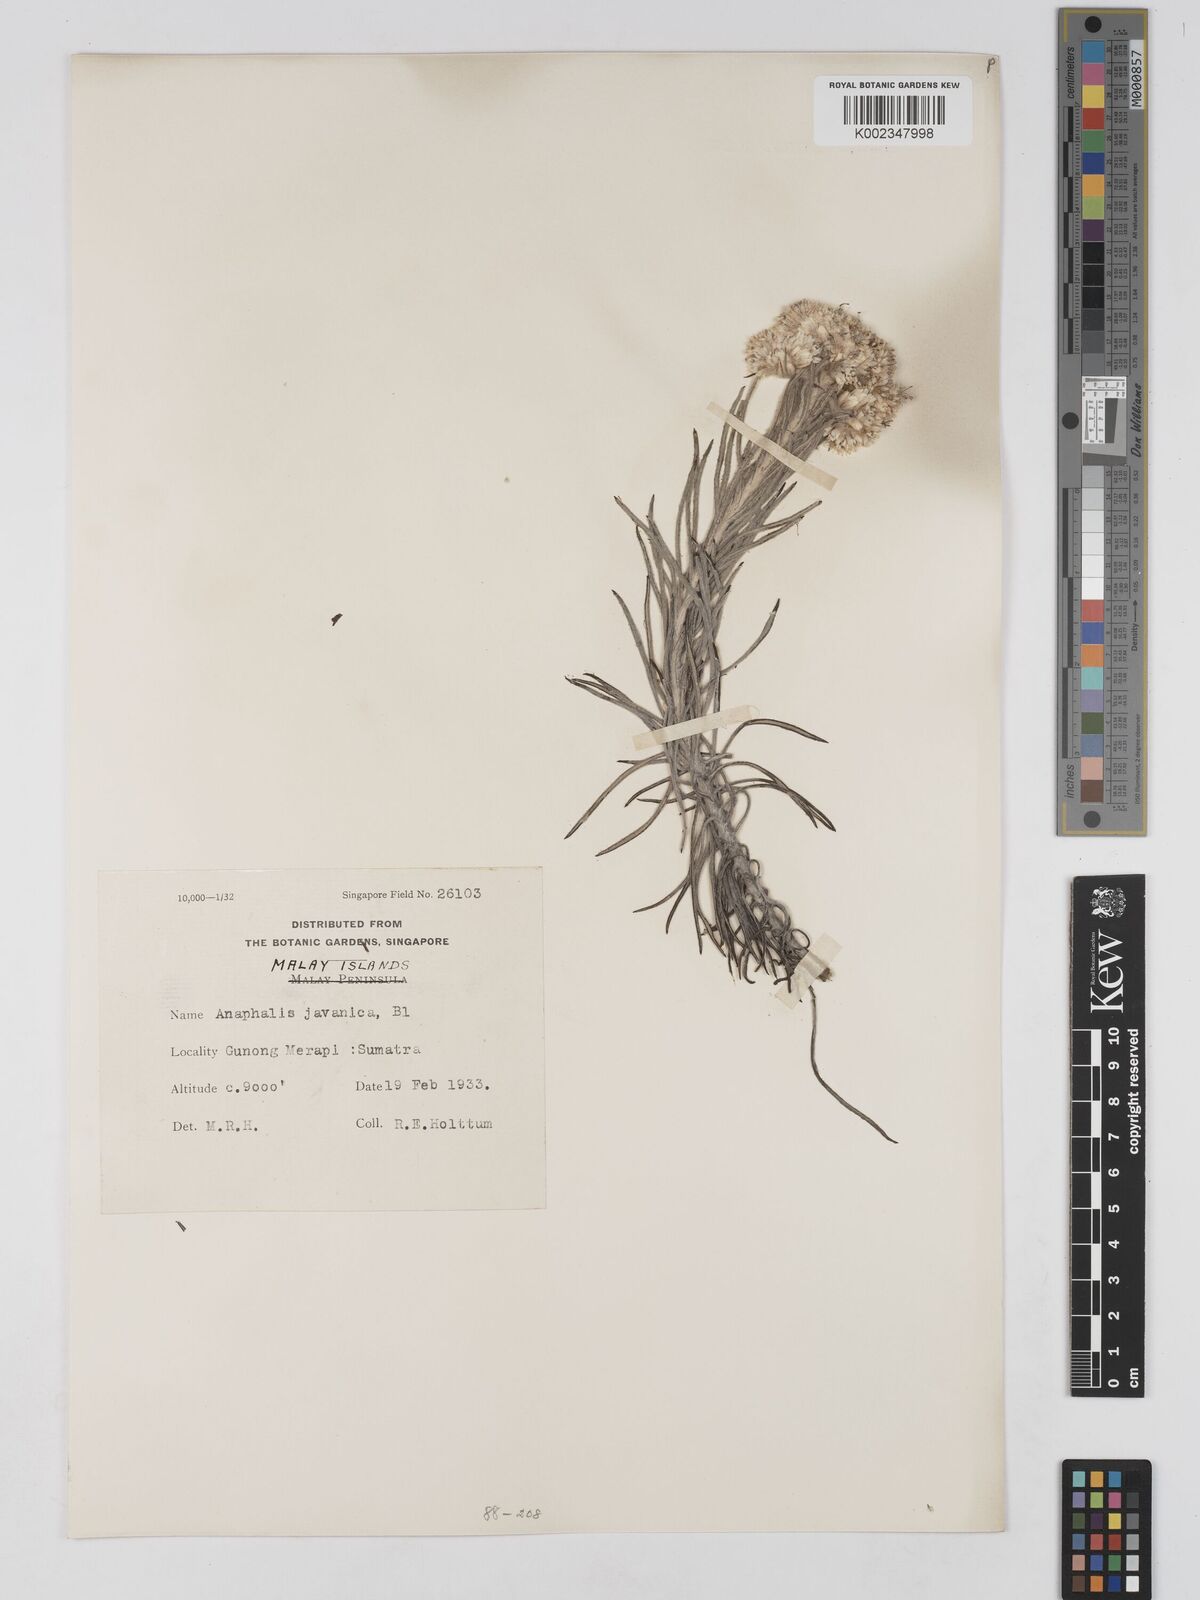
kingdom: Plantae
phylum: Tracheophyta
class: Magnoliopsida
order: Asterales
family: Asteraceae
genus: Anaphalis
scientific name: Anaphalis javanica
